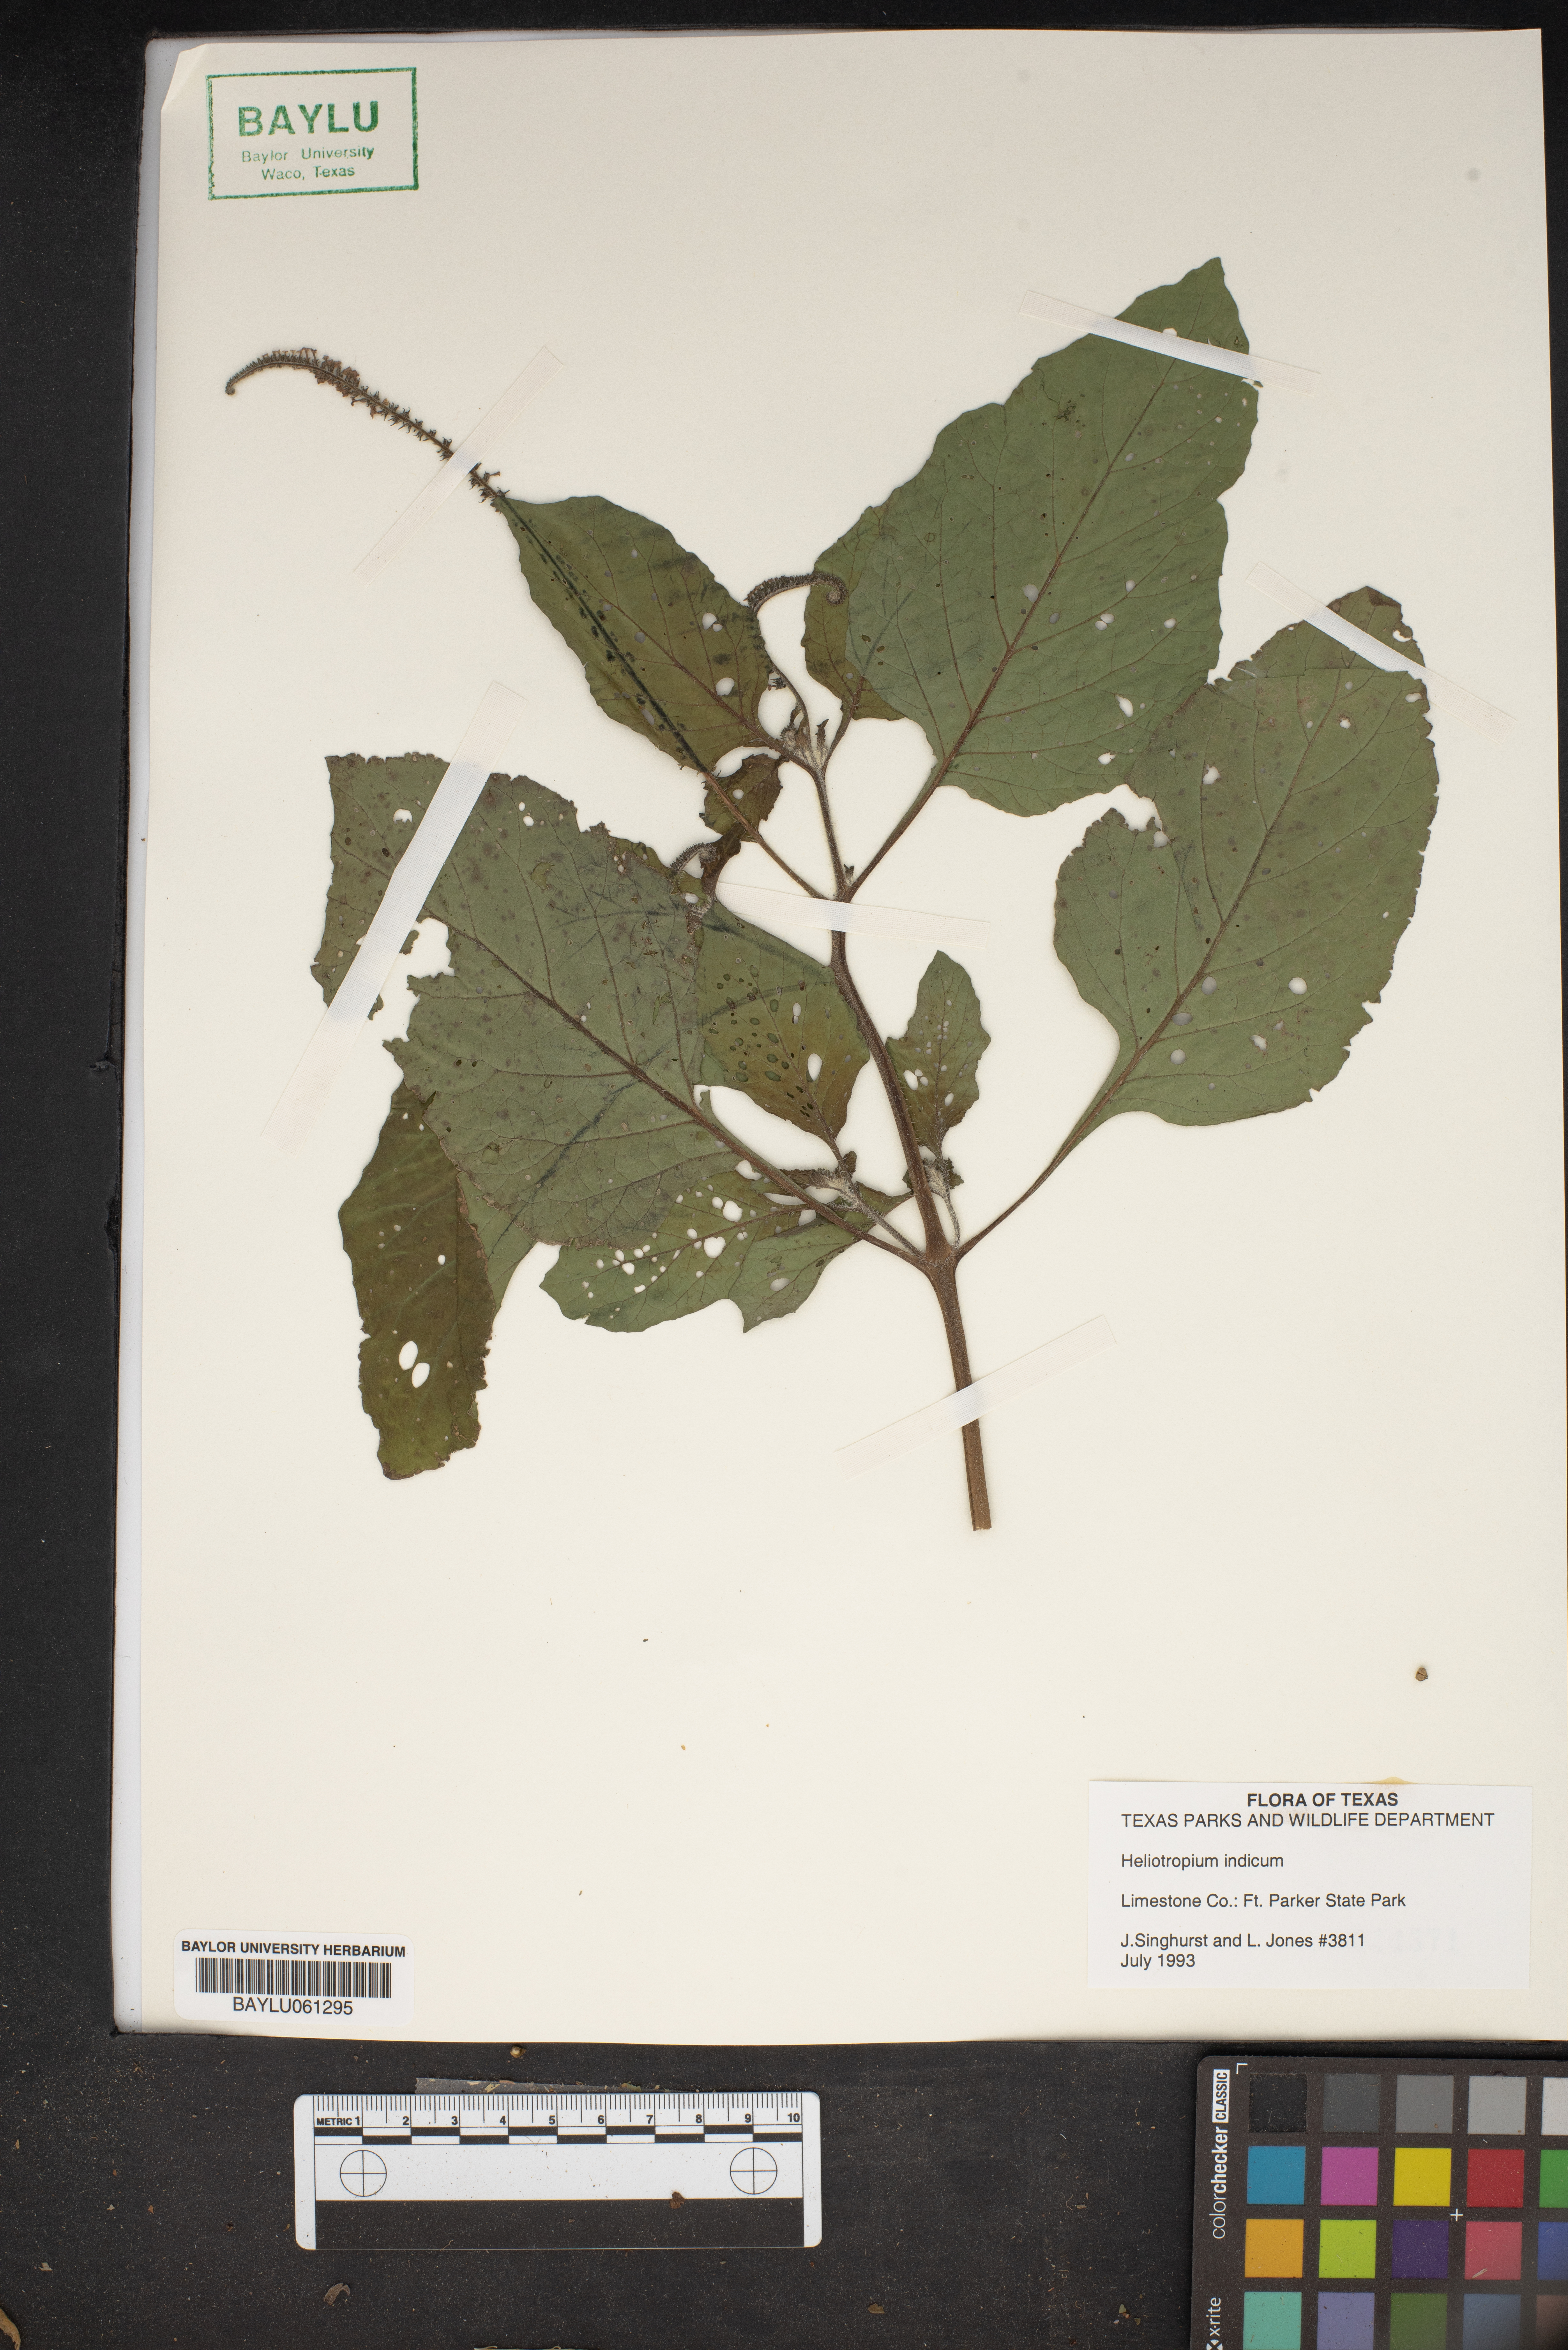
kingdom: Plantae
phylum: Tracheophyta
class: Magnoliopsida
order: Boraginales
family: Heliotropiaceae
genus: Heliotropium
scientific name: Heliotropium indicum
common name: Indian heliotrope
